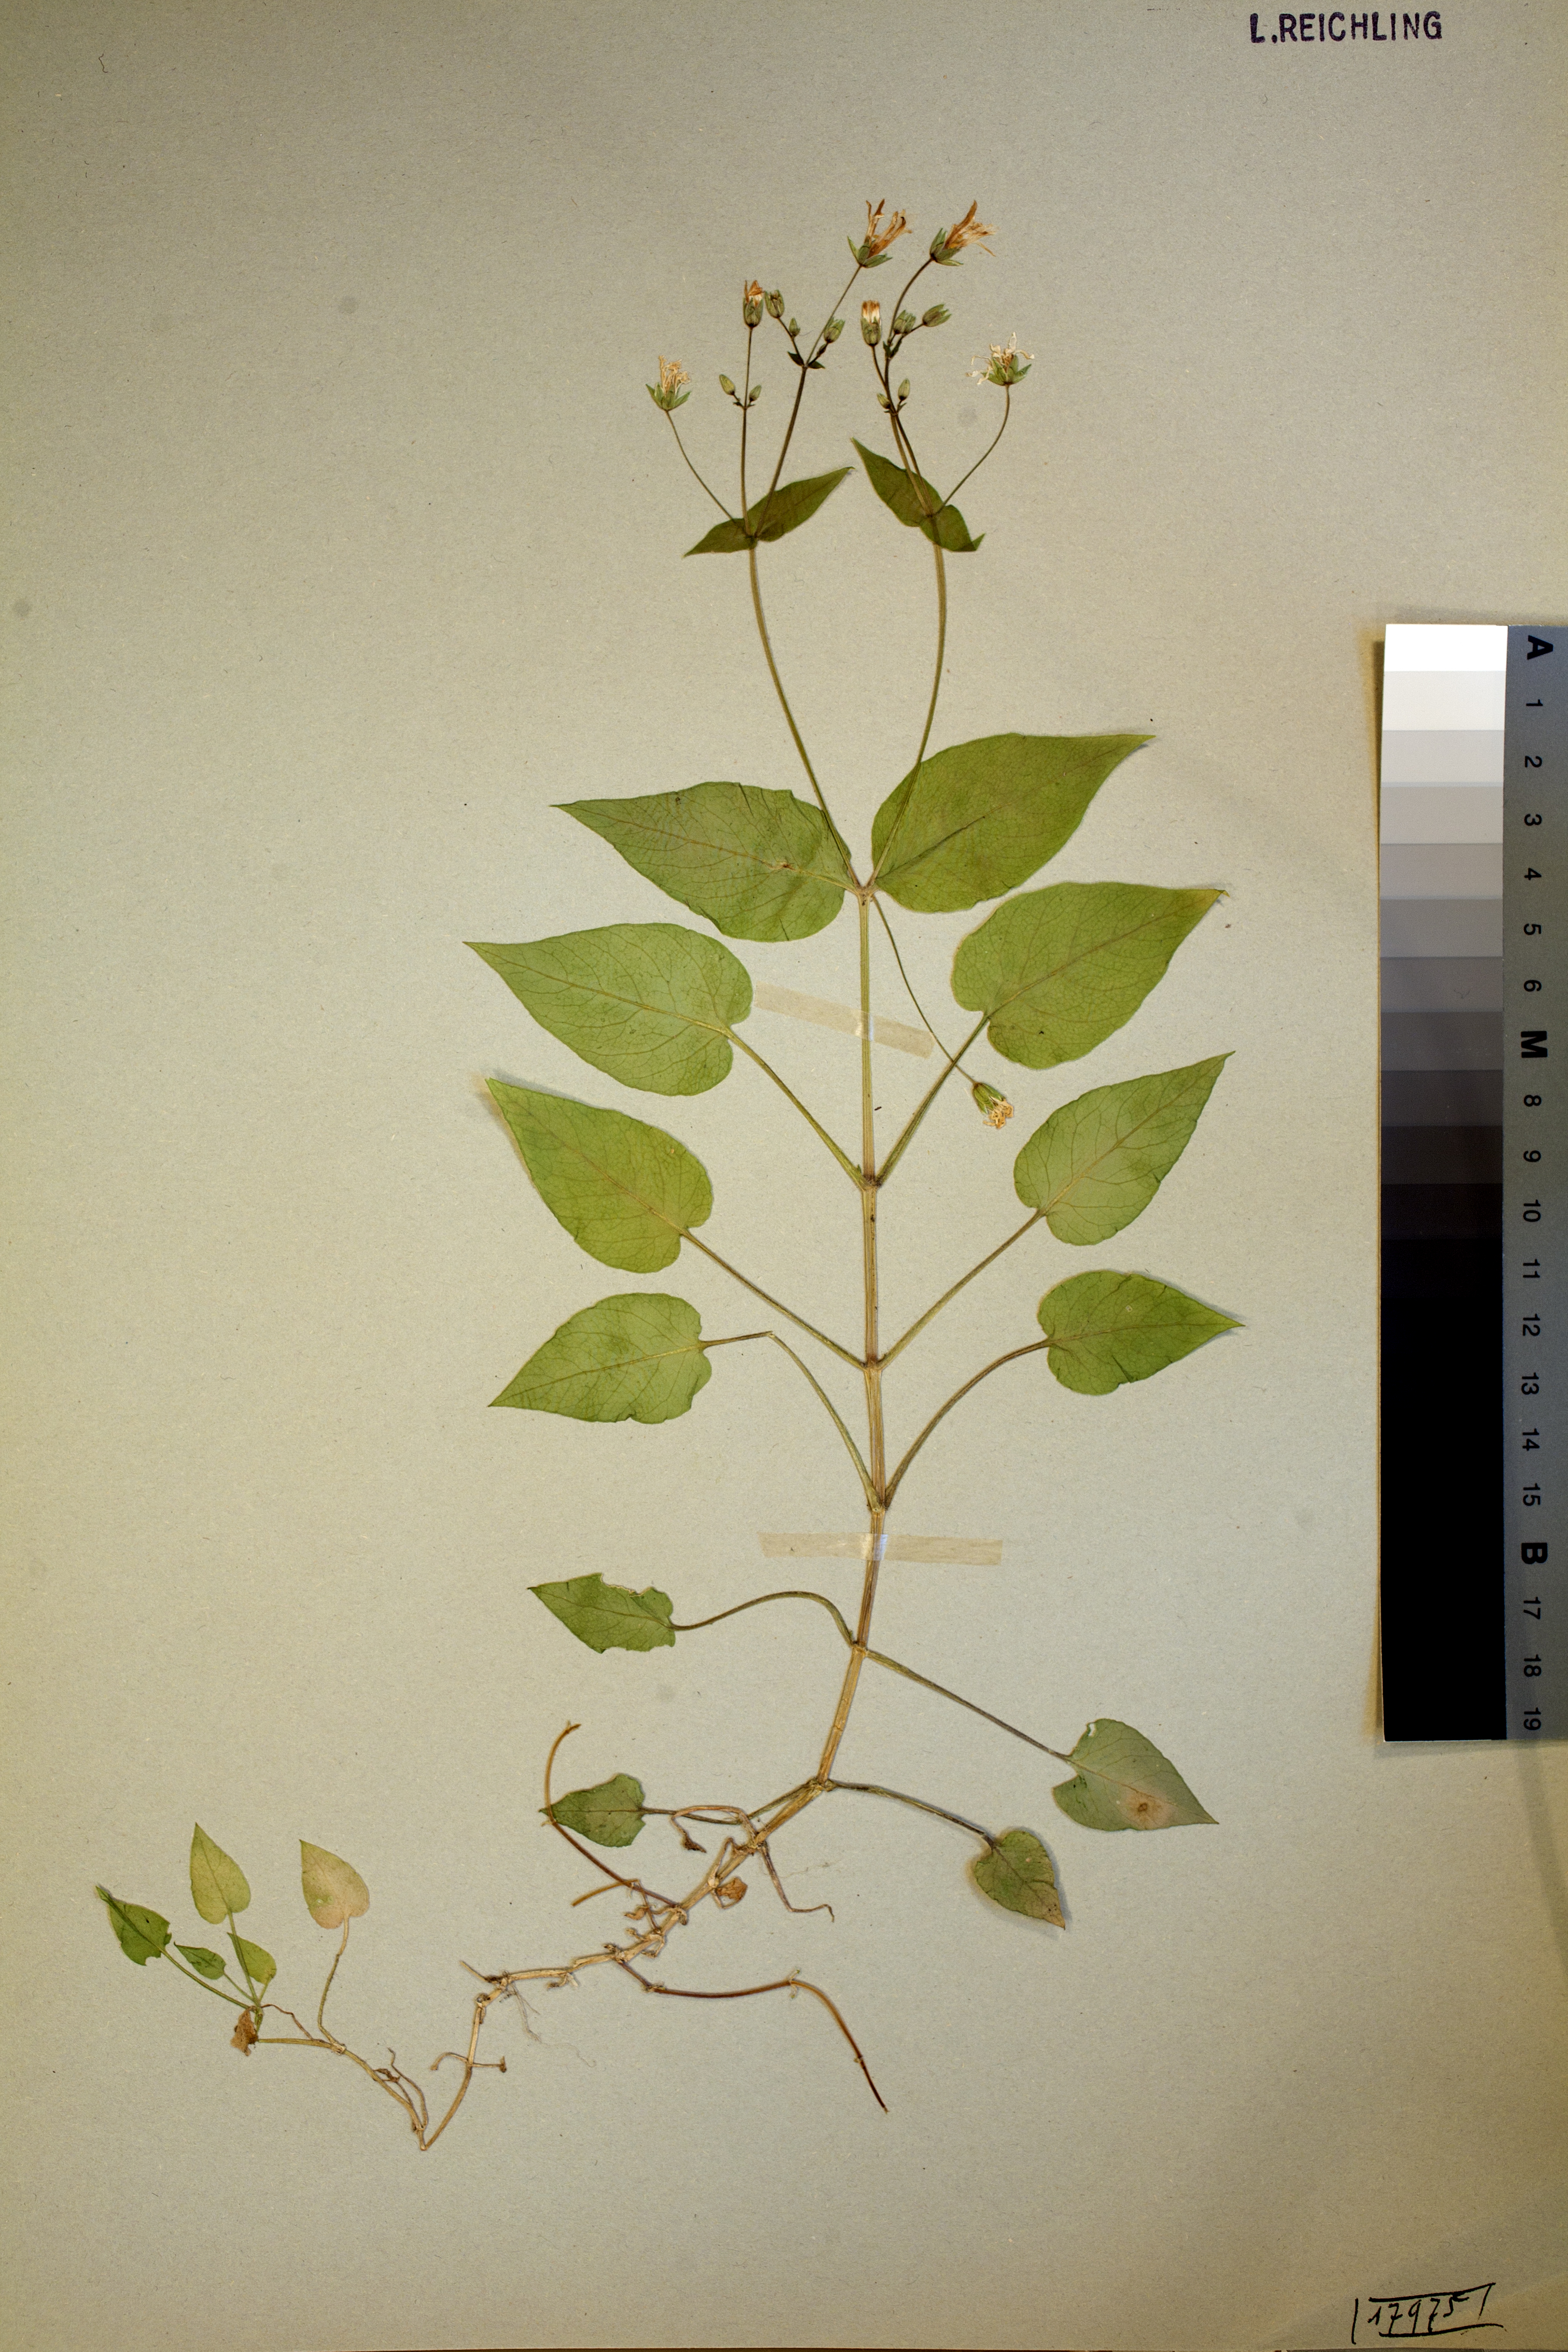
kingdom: Plantae
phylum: Tracheophyta
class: Magnoliopsida
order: Caryophyllales
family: Caryophyllaceae
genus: Stellaria
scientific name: Stellaria glochidisperma
